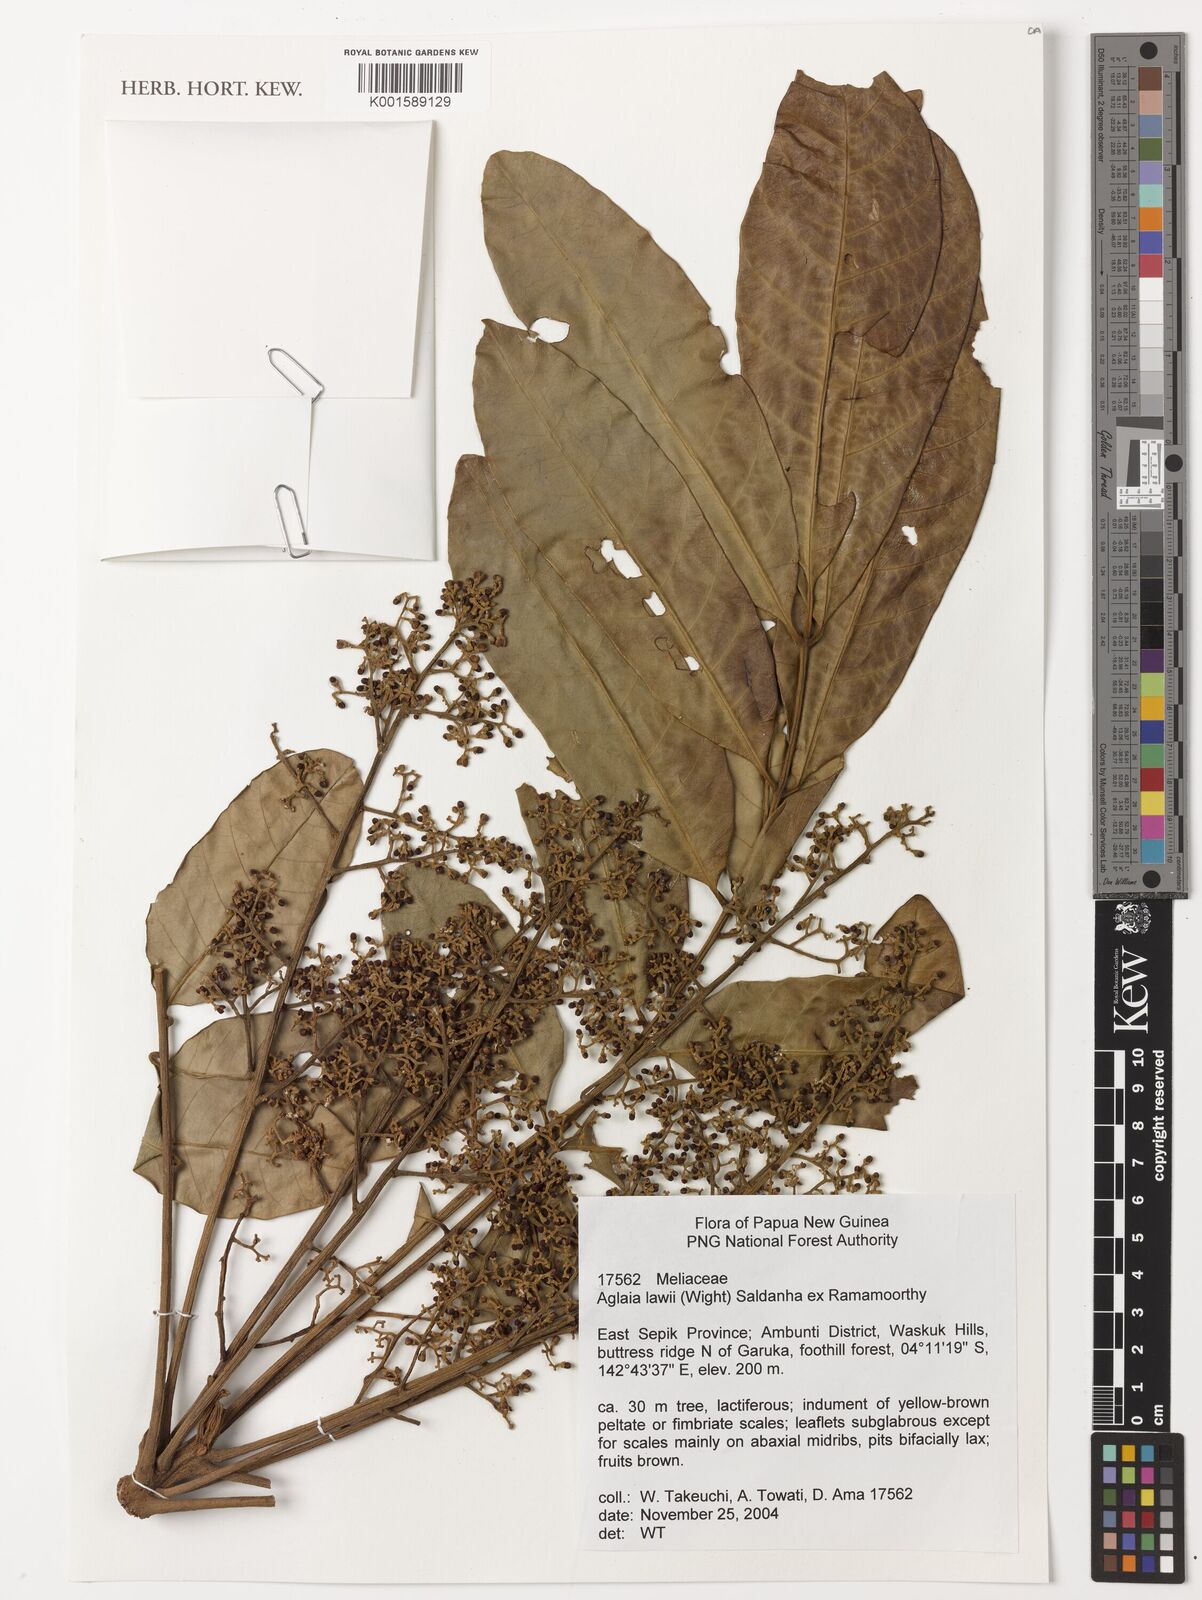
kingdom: Plantae
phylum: Tracheophyta
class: Magnoliopsida
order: Sapindales
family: Meliaceae
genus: Aglaia
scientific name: Aglaia lawii
